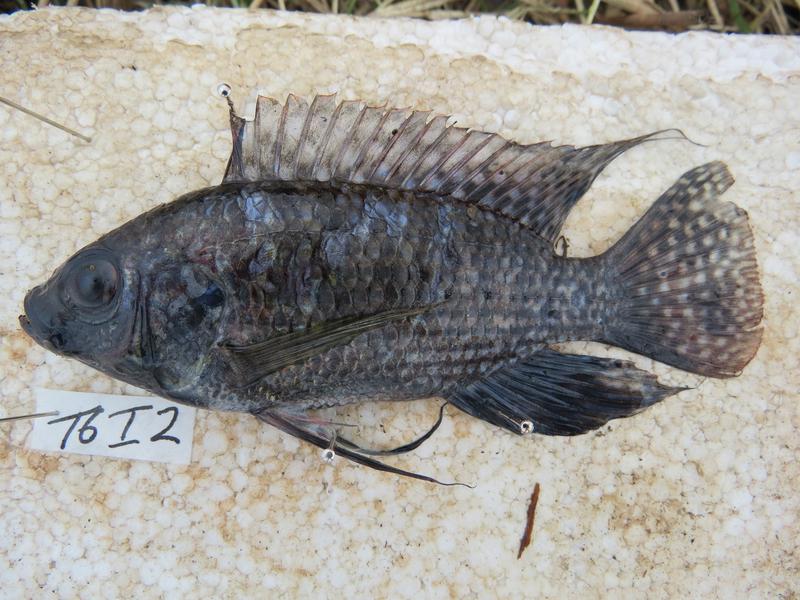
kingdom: Animalia
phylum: Chordata
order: Perciformes
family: Cichlidae
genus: Oreochromis
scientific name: Oreochromis leucostictus
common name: Blue spotted tilapia
